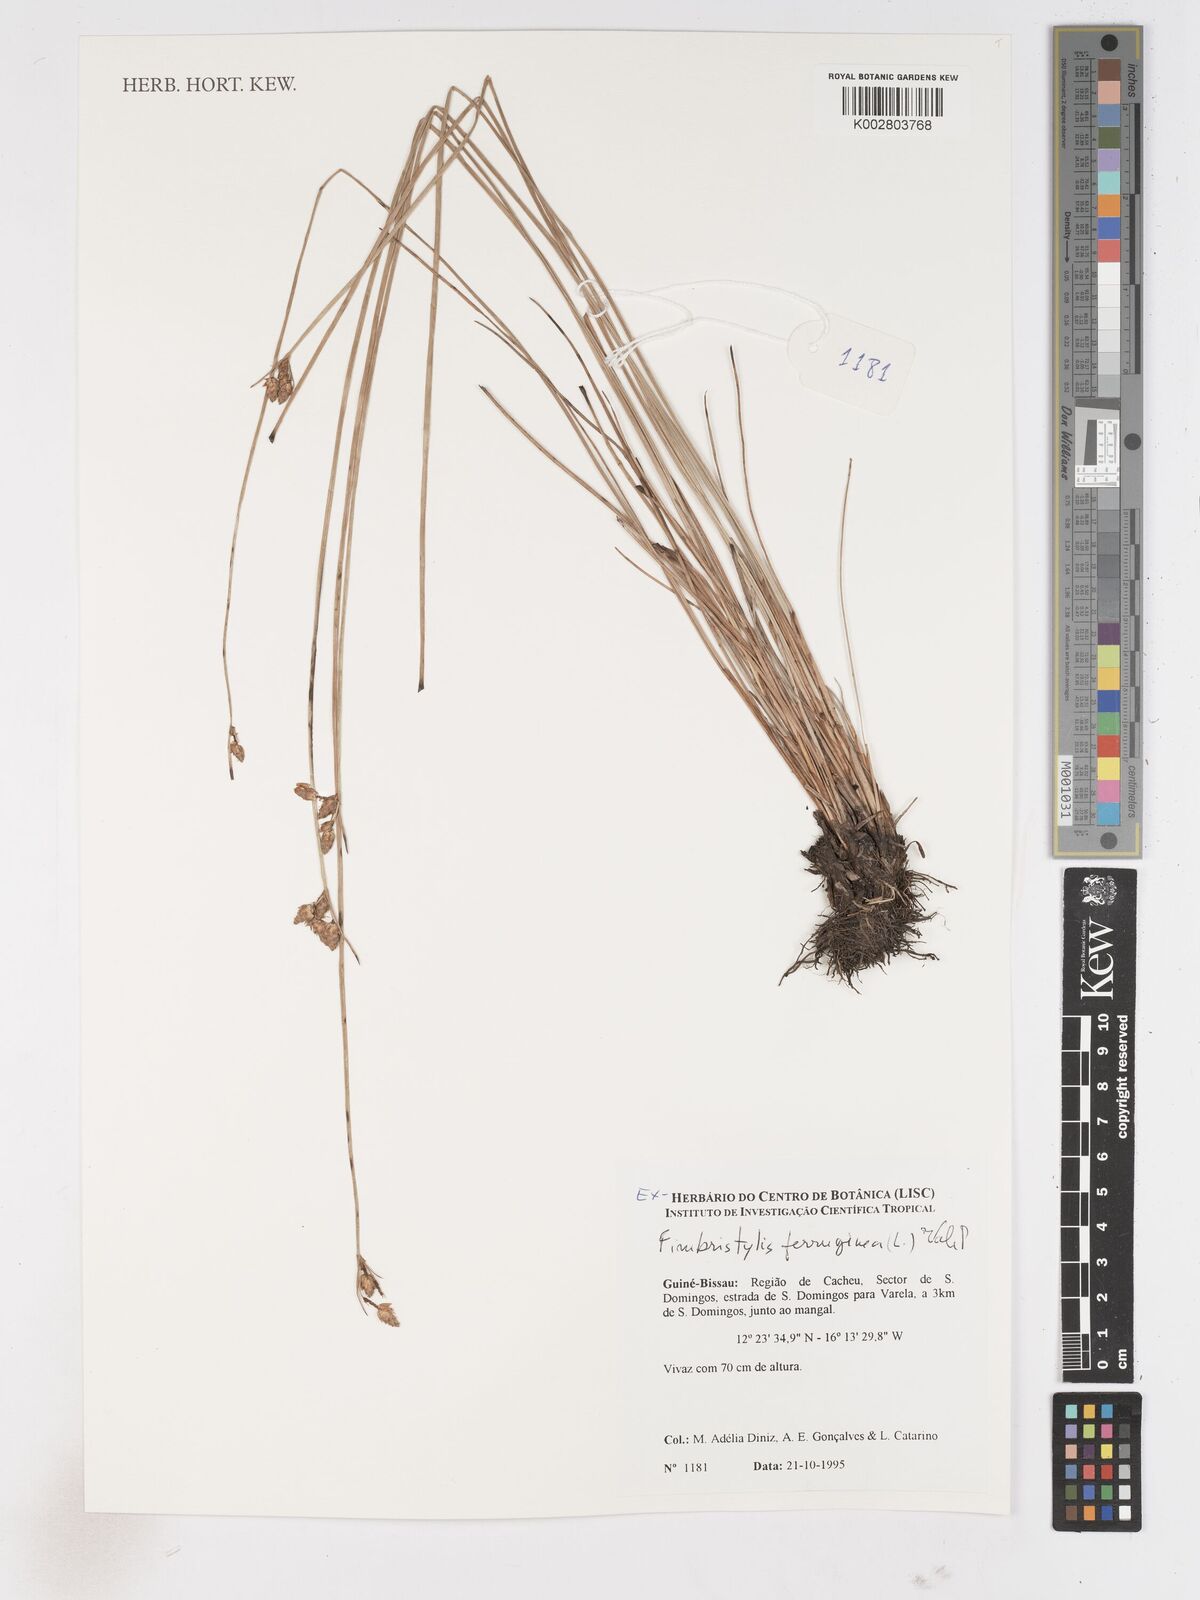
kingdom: Plantae
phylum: Tracheophyta
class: Liliopsida
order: Poales
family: Cyperaceae
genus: Fimbristylis
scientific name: Fimbristylis ferruginea
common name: West indian fimbry
